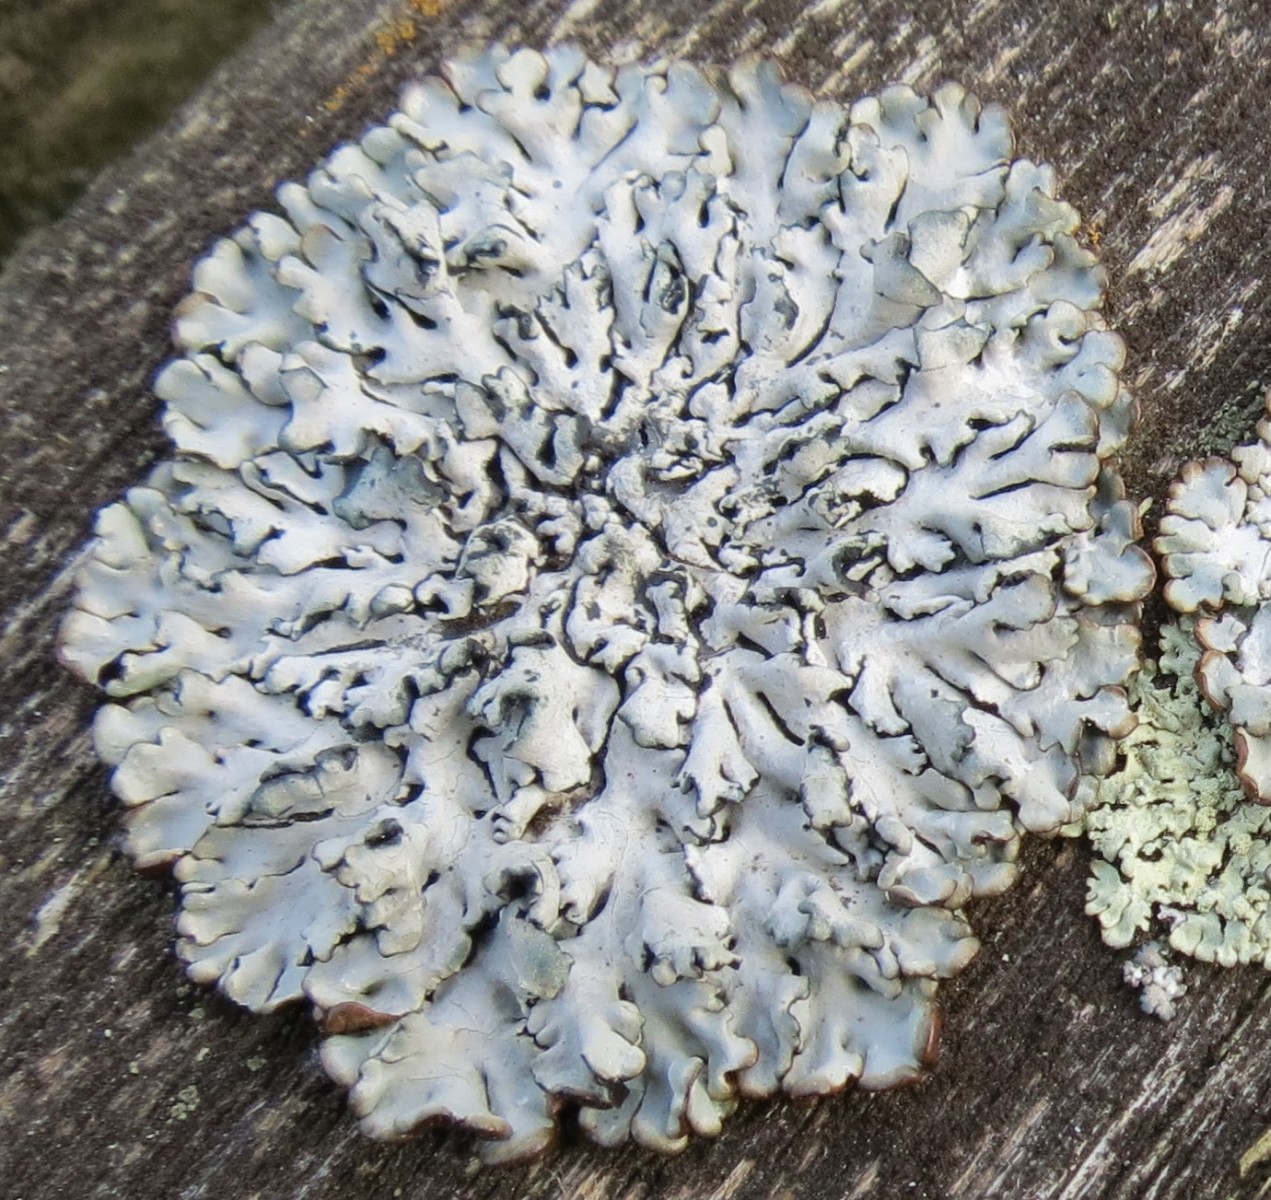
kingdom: Fungi
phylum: Ascomycota
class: Lecanoromycetes
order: Lecanorales
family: Parmeliaceae
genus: Hypogymnia
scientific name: Hypogymnia physodes
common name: almindelig kvistlav
